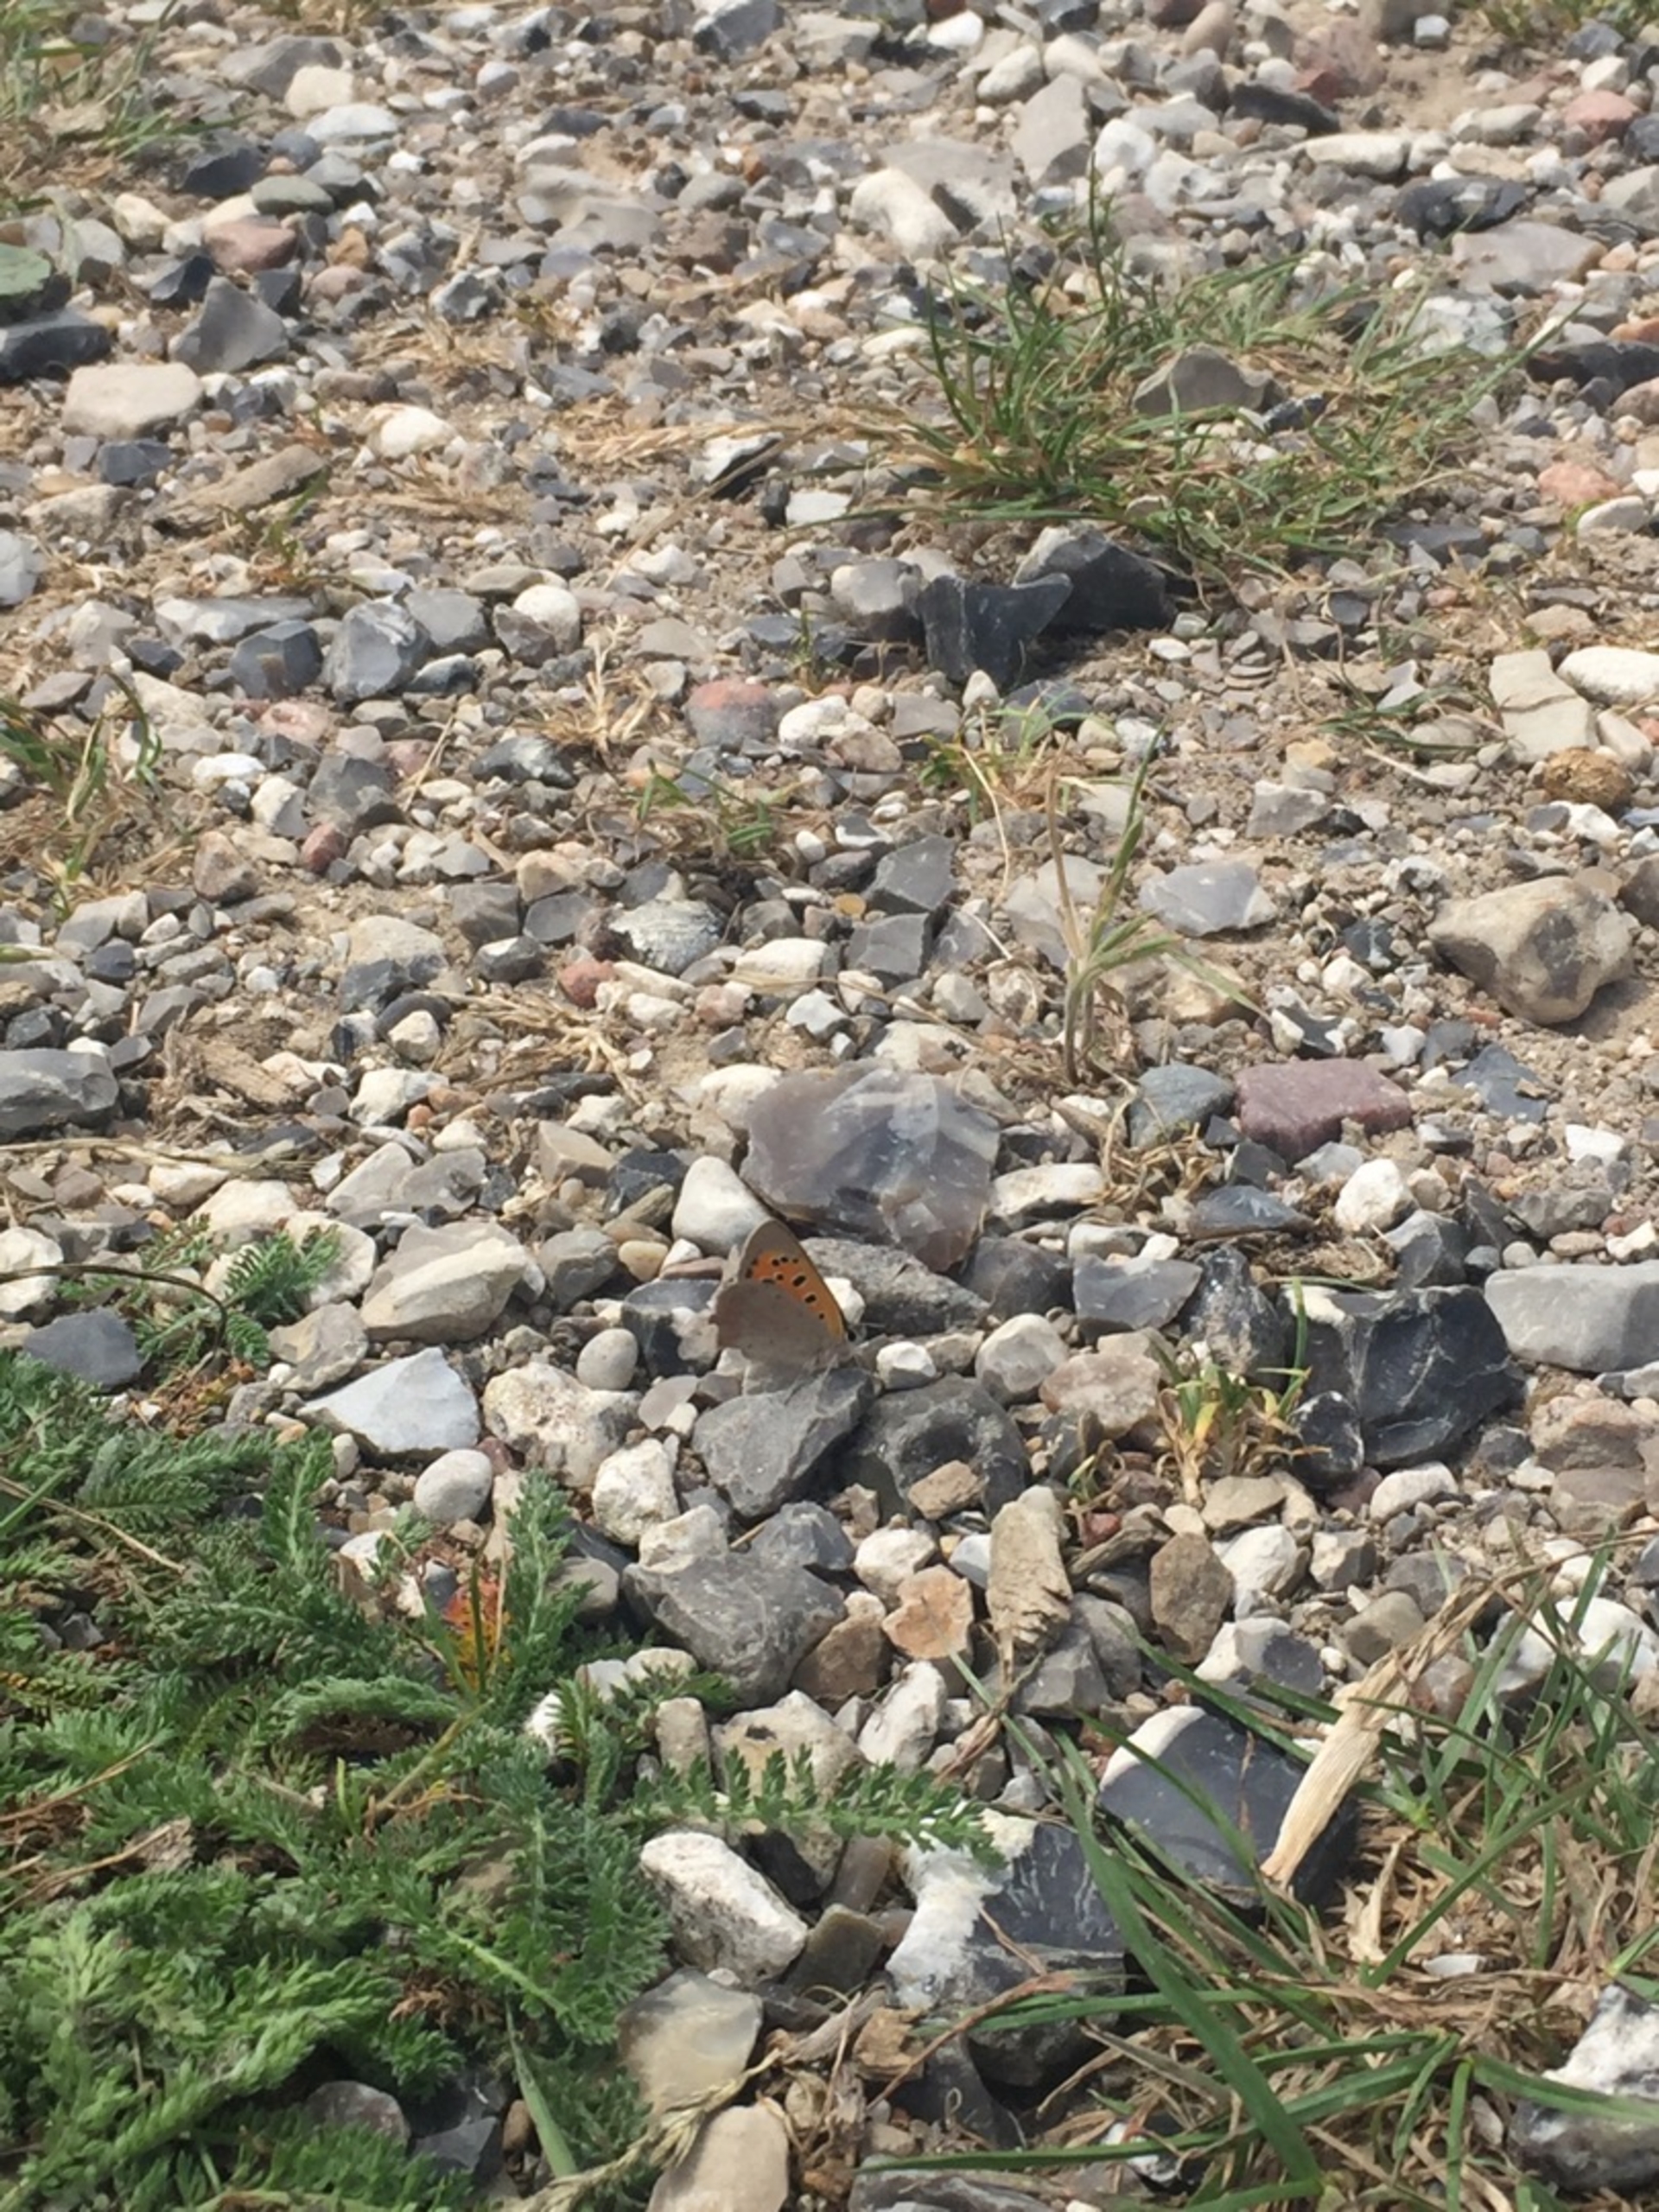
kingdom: Animalia
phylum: Arthropoda
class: Insecta
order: Lepidoptera
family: Lycaenidae
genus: Lycaena
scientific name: Lycaena phlaeas
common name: Lille ildfugl
